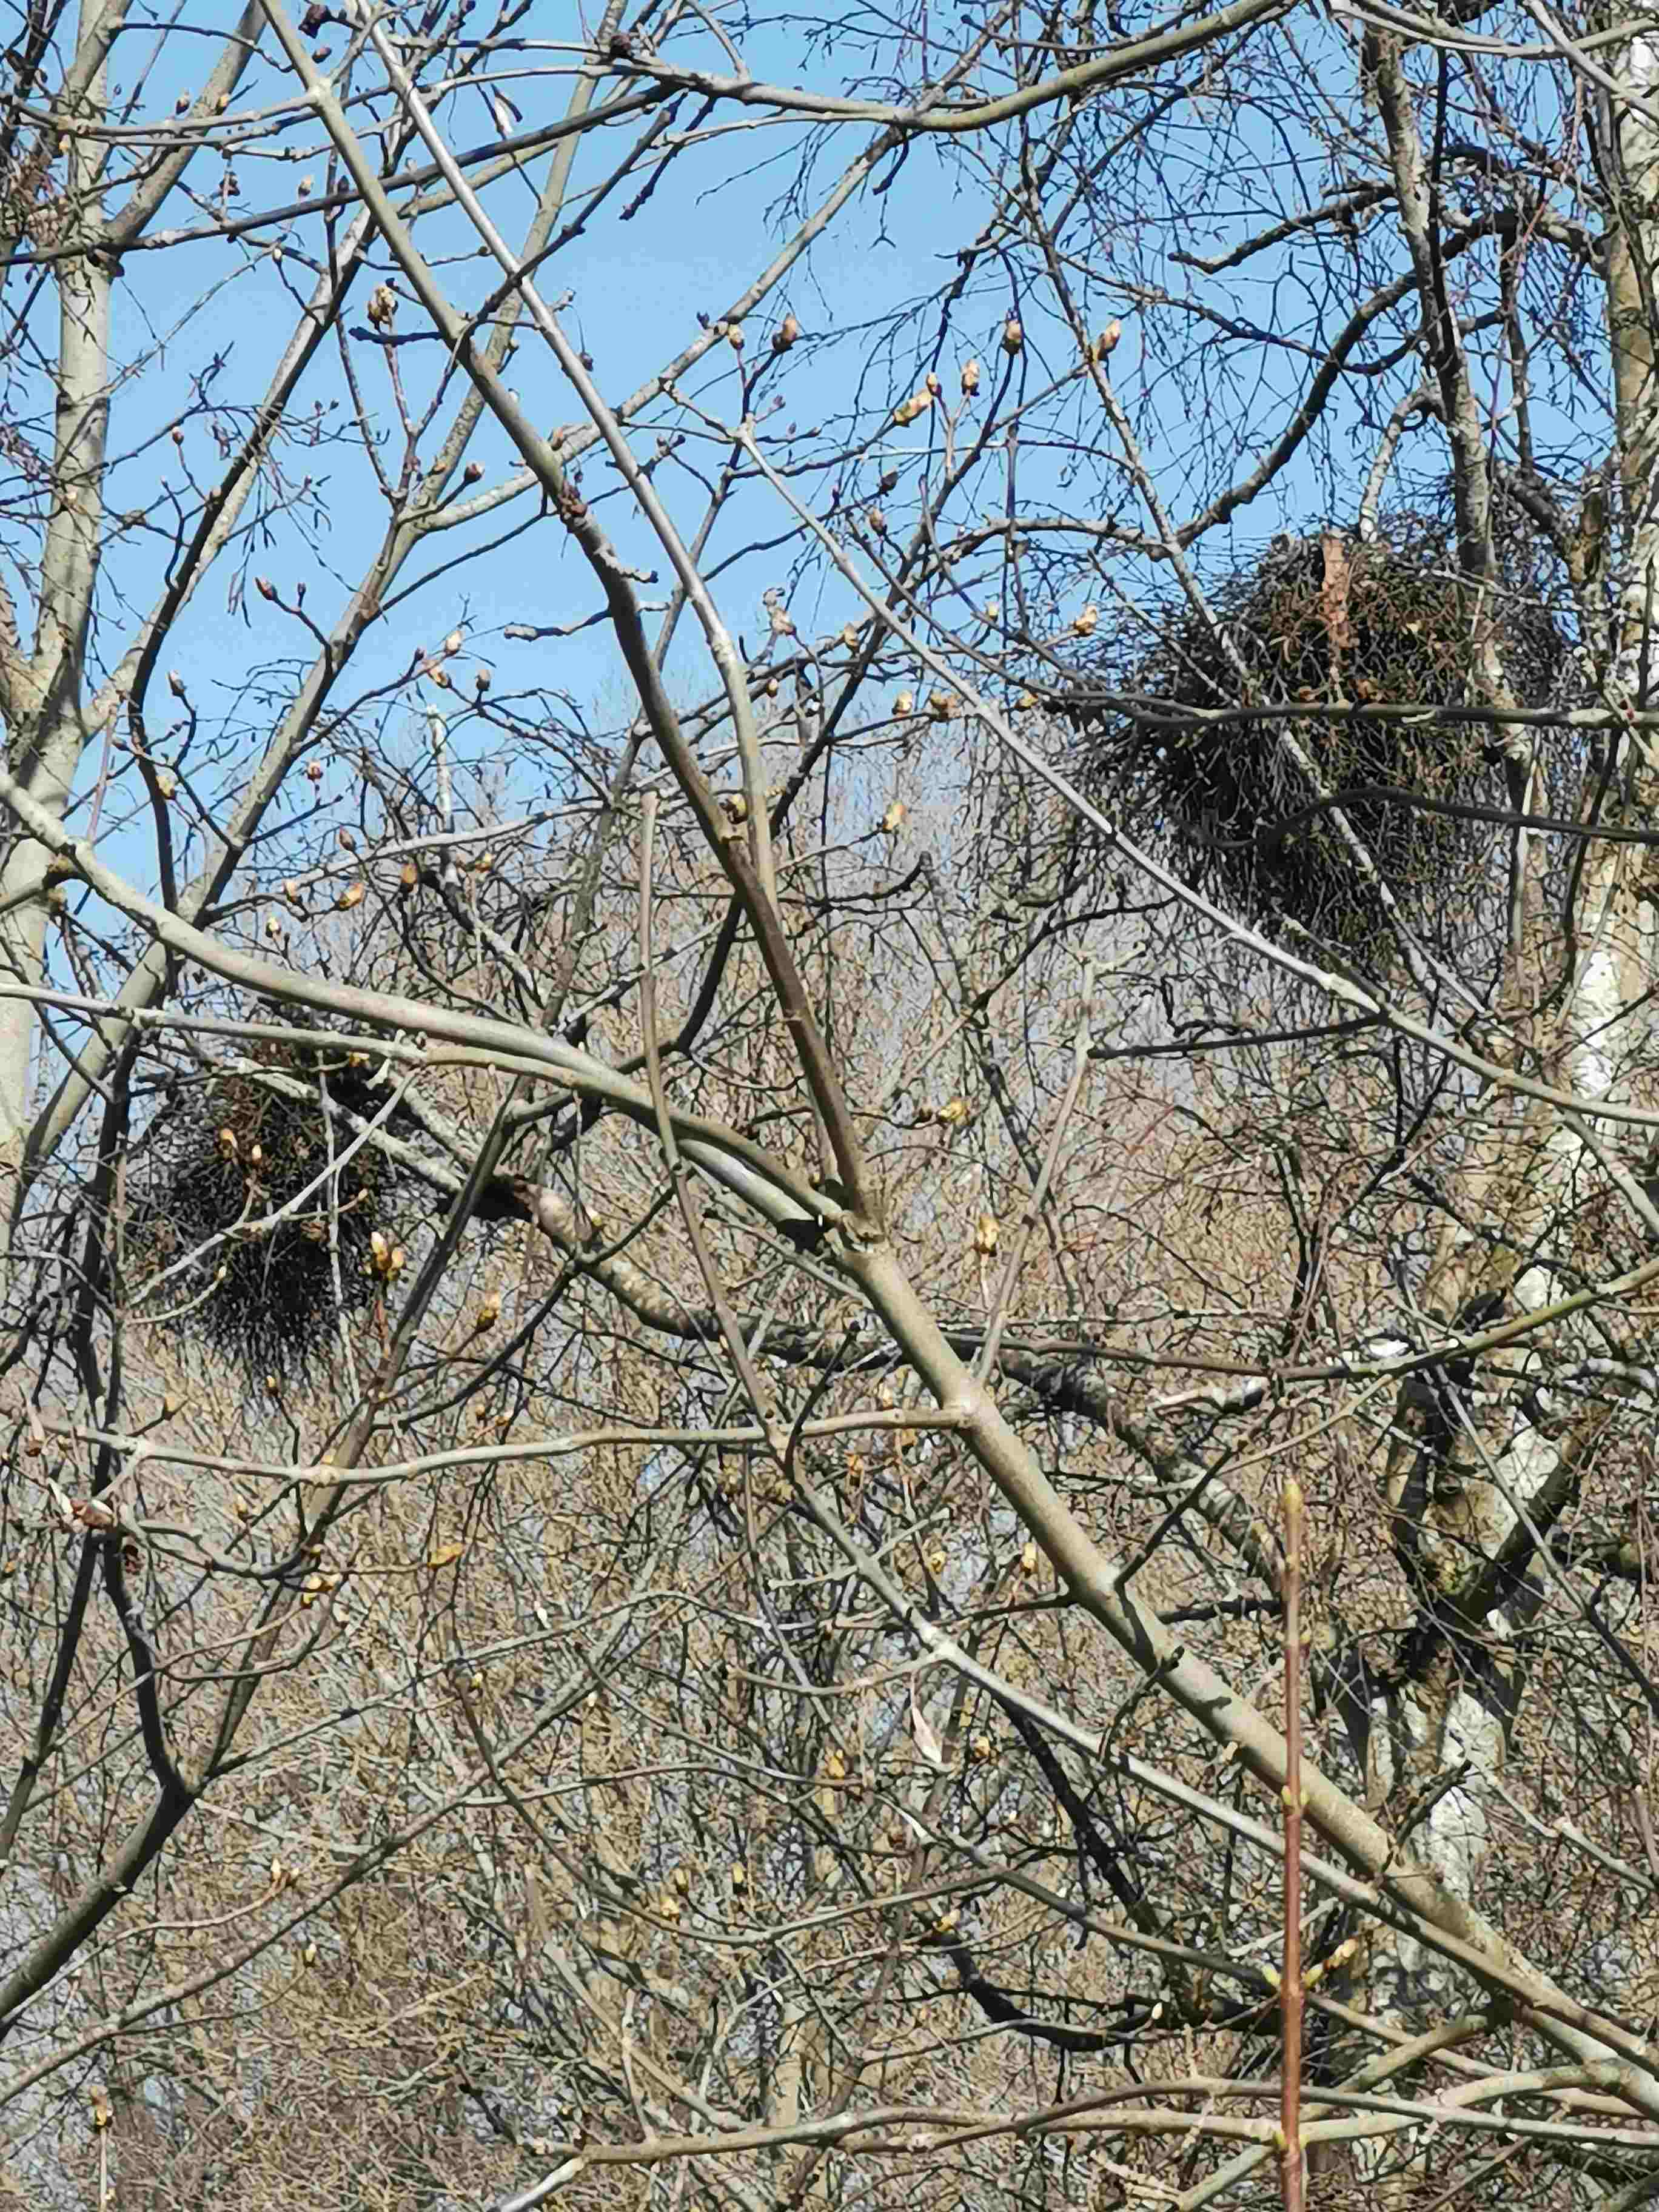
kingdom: Fungi
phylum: Ascomycota
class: Taphrinomycetes
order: Taphrinales
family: Taphrinaceae
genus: Taphrina
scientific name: Taphrina betulina
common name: hekse-sækdug
